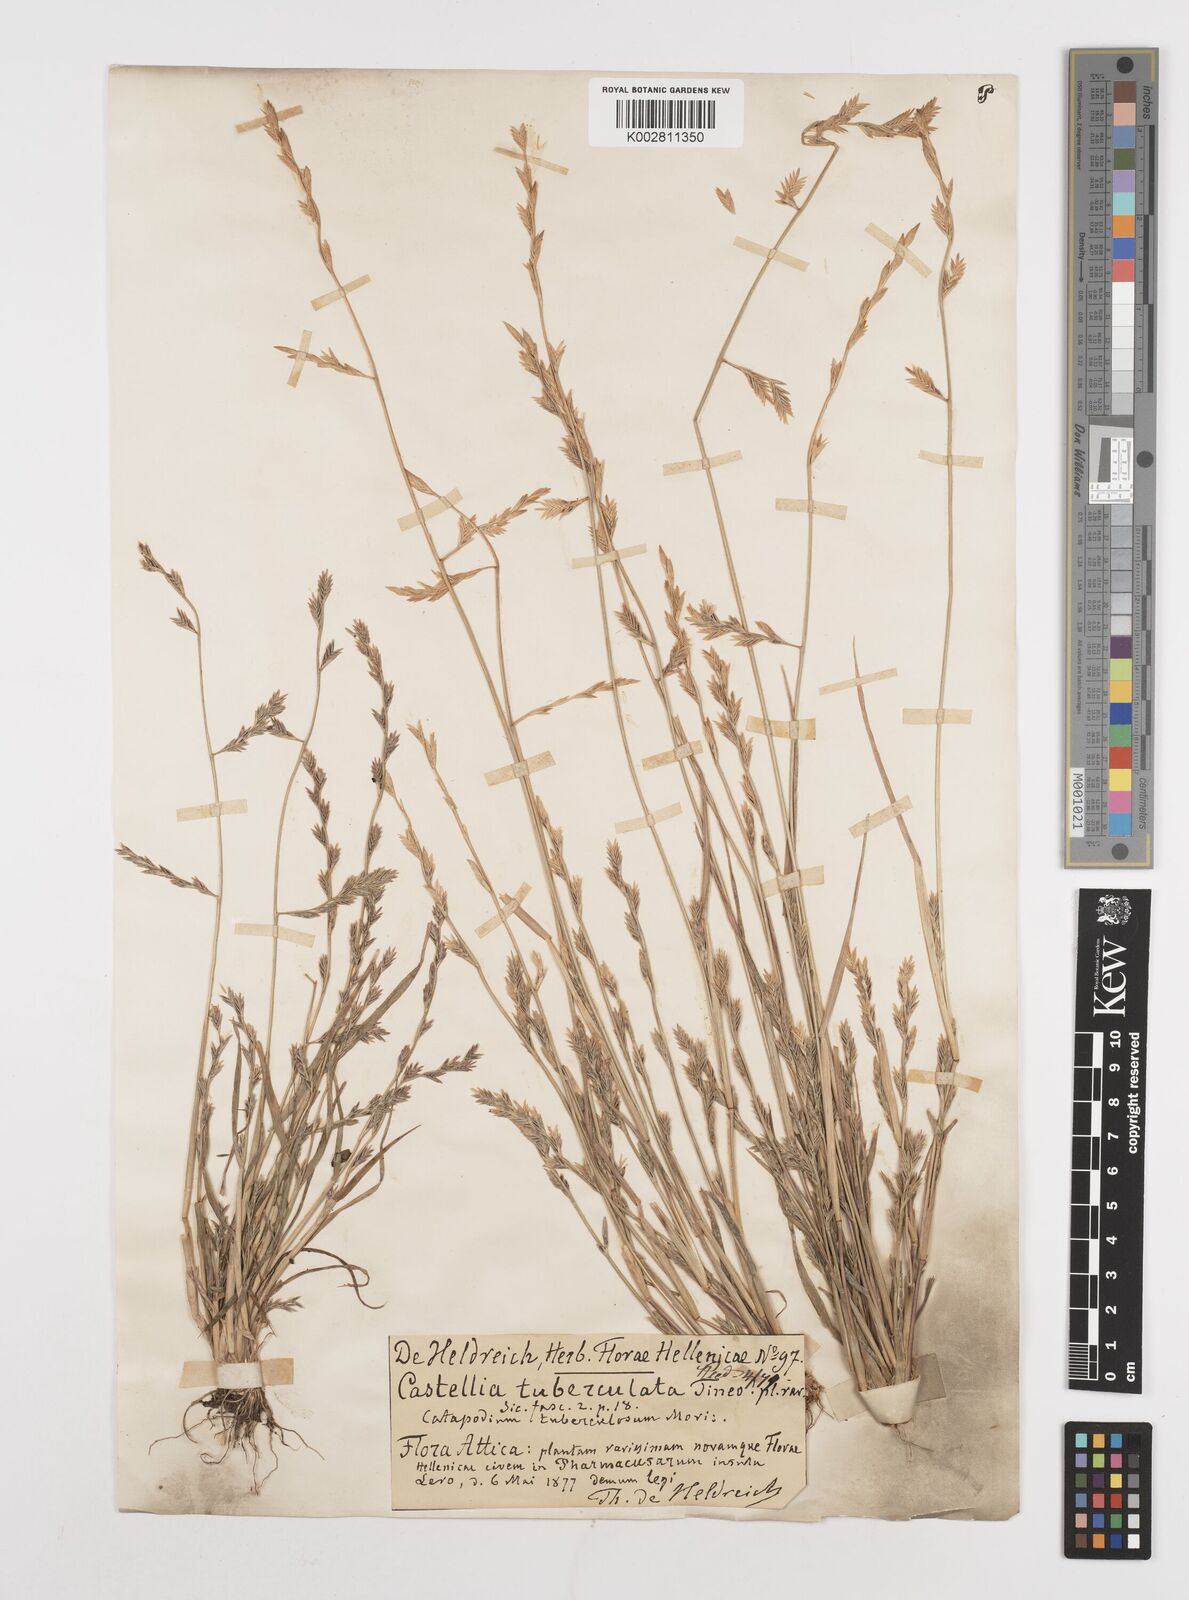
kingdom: Plantae
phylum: Tracheophyta
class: Liliopsida
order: Poales
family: Poaceae
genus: Castellia
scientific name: Castellia tuberculosa
